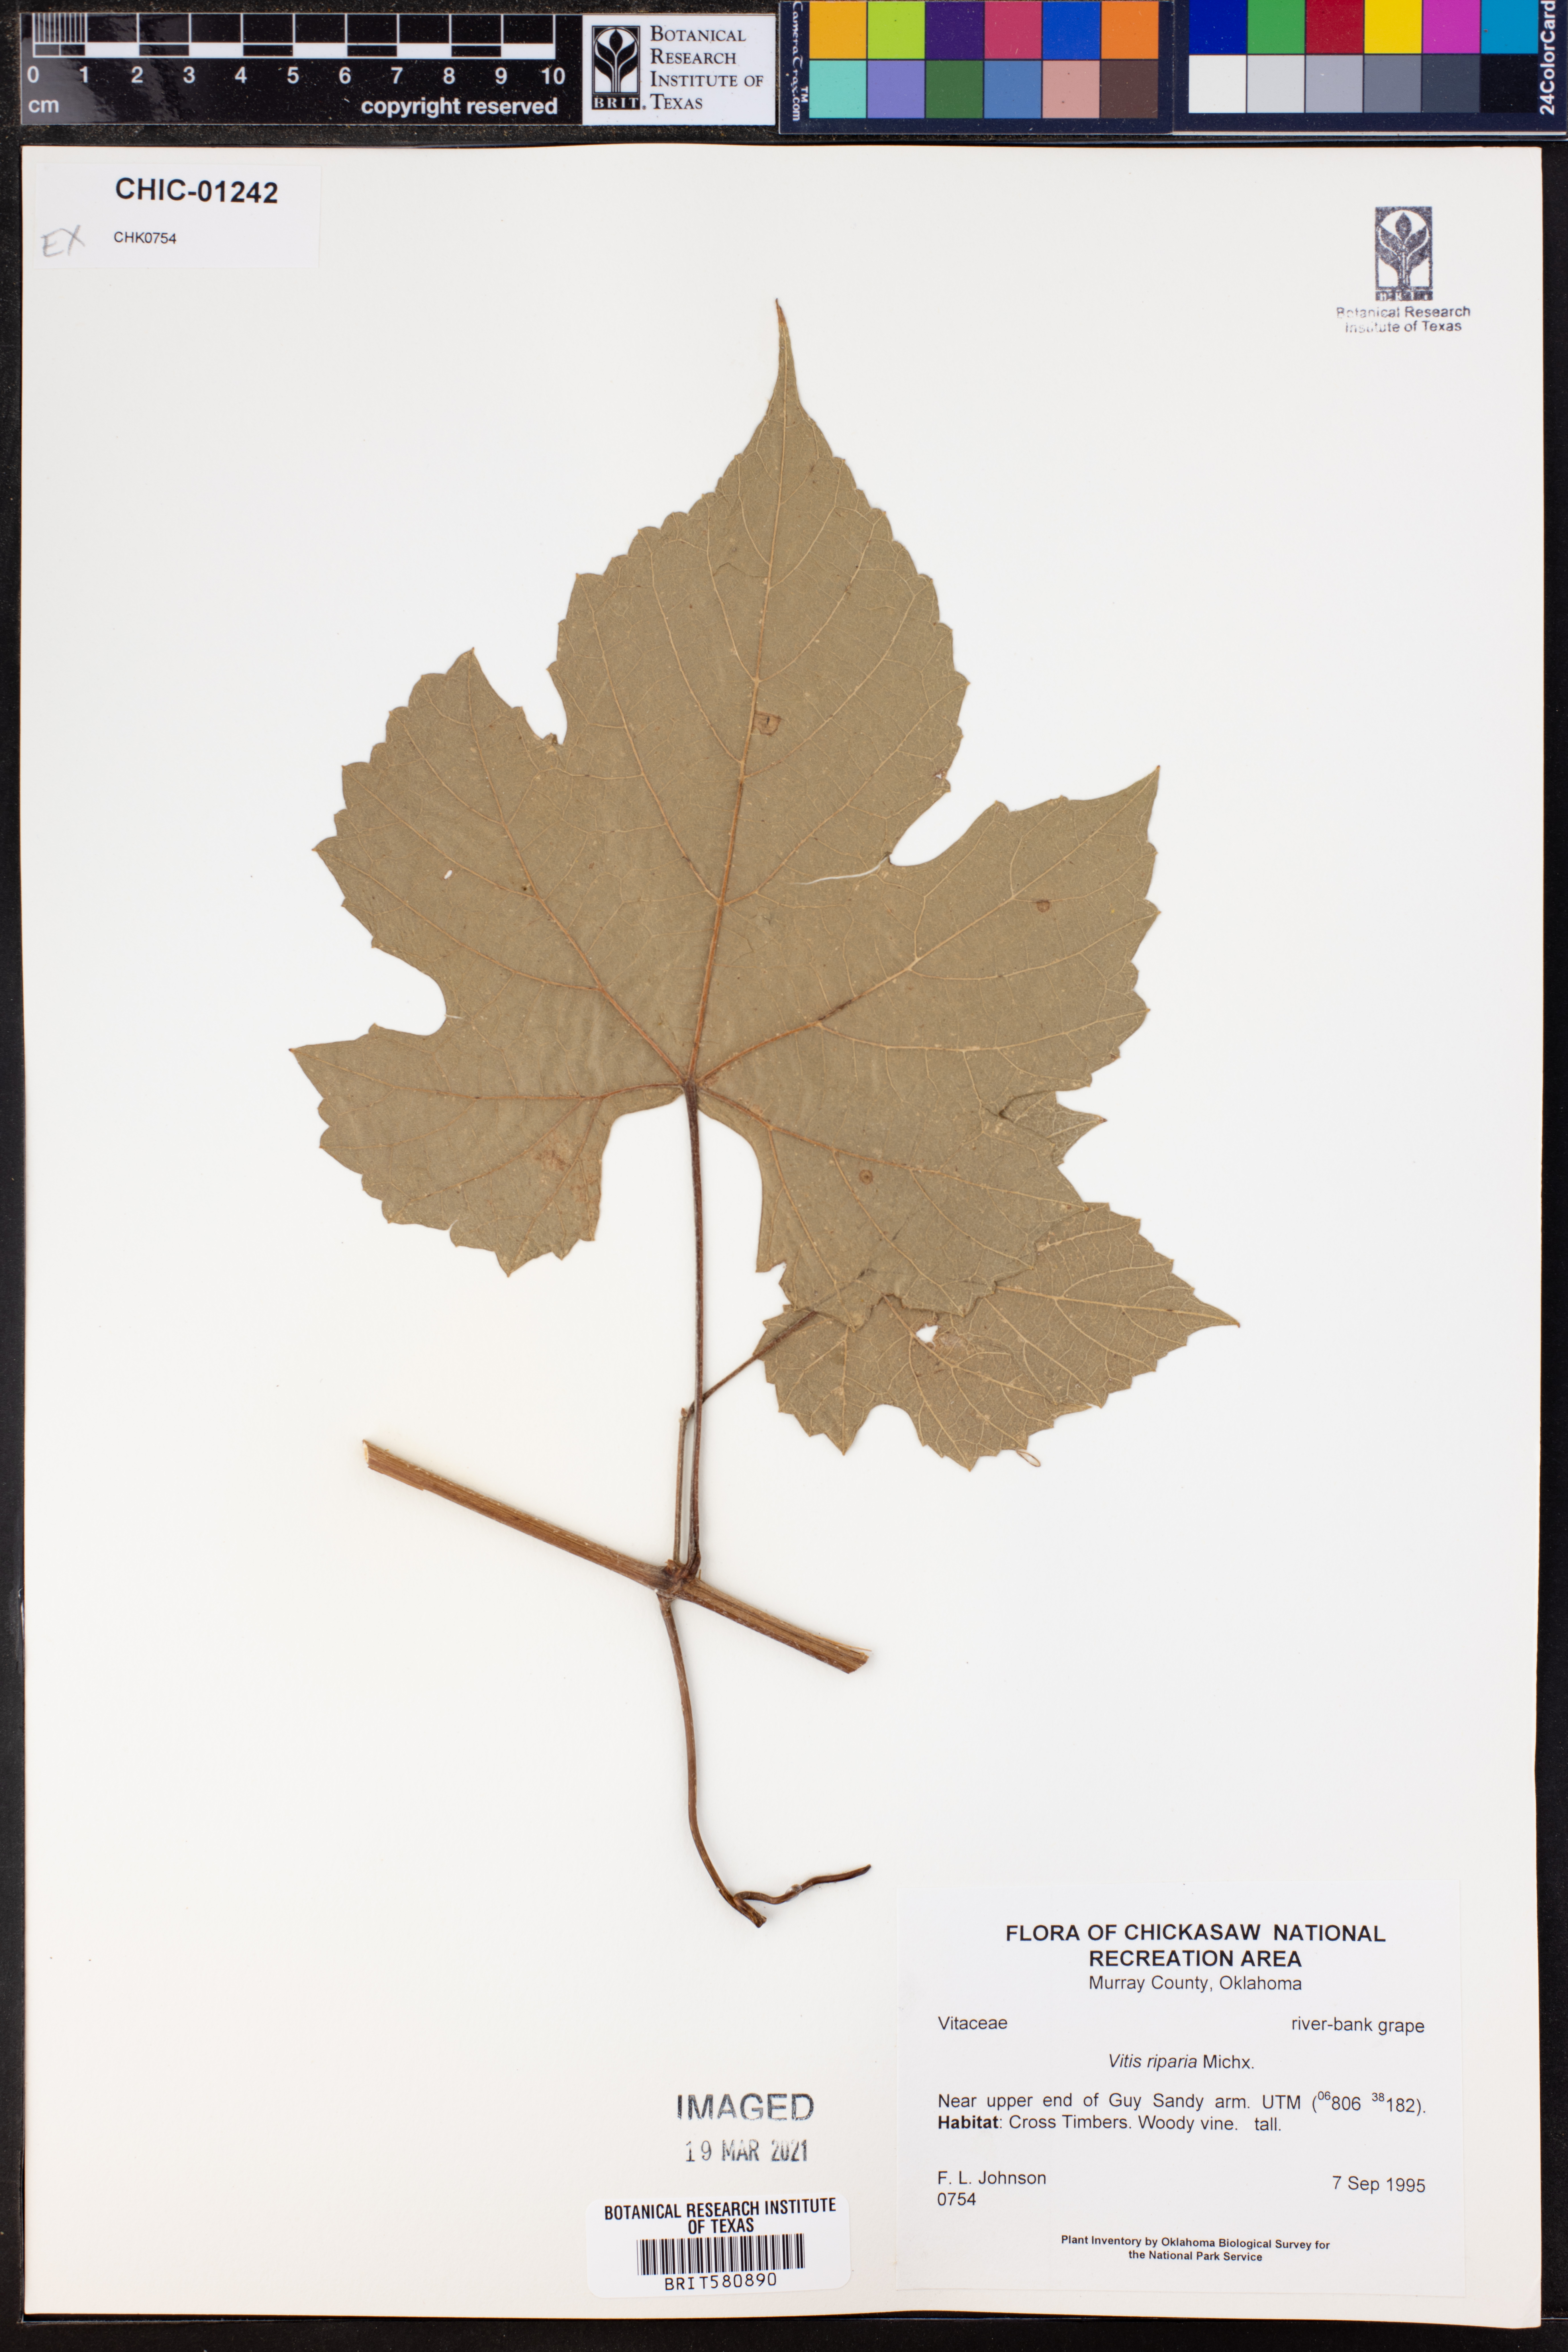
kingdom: Plantae
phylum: Tracheophyta
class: Magnoliopsida
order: Vitales
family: Vitaceae
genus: Vitis
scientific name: Vitis riparia
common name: Frost grape
